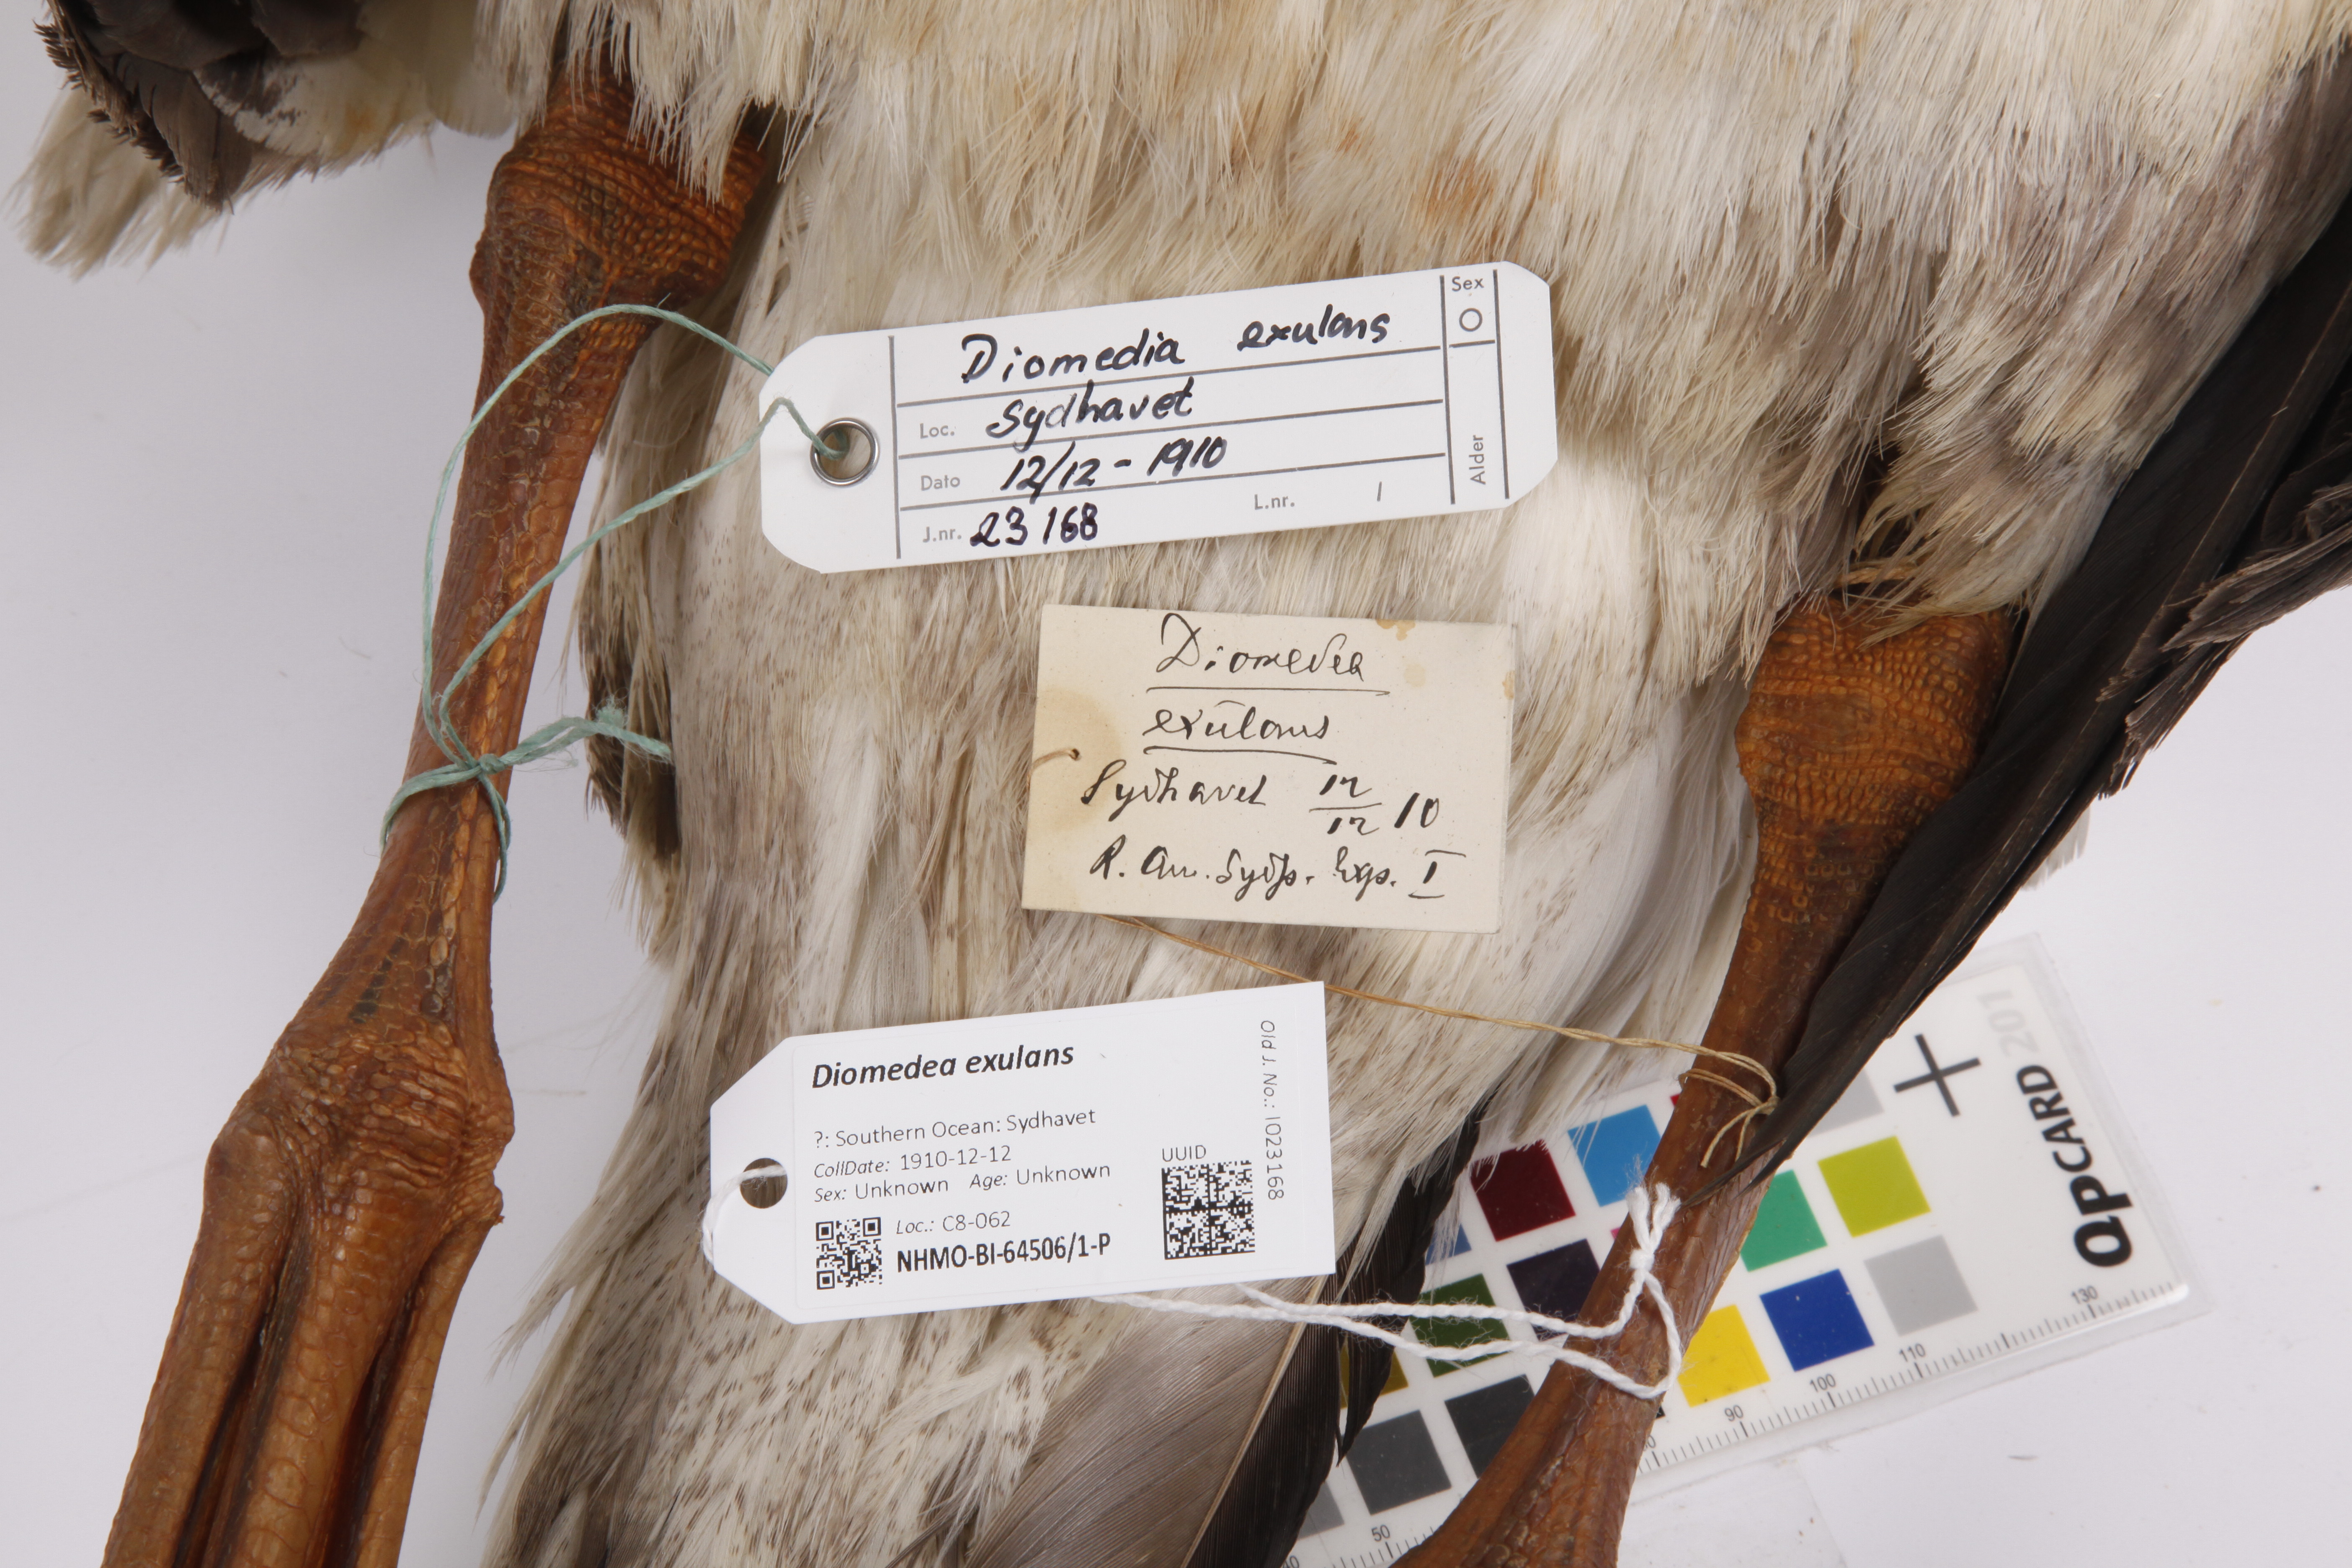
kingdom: Animalia
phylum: Chordata
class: Aves
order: Procellariiformes
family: Diomedeidae
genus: Diomedea
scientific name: Diomedea exulans
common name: Wandering albatross
